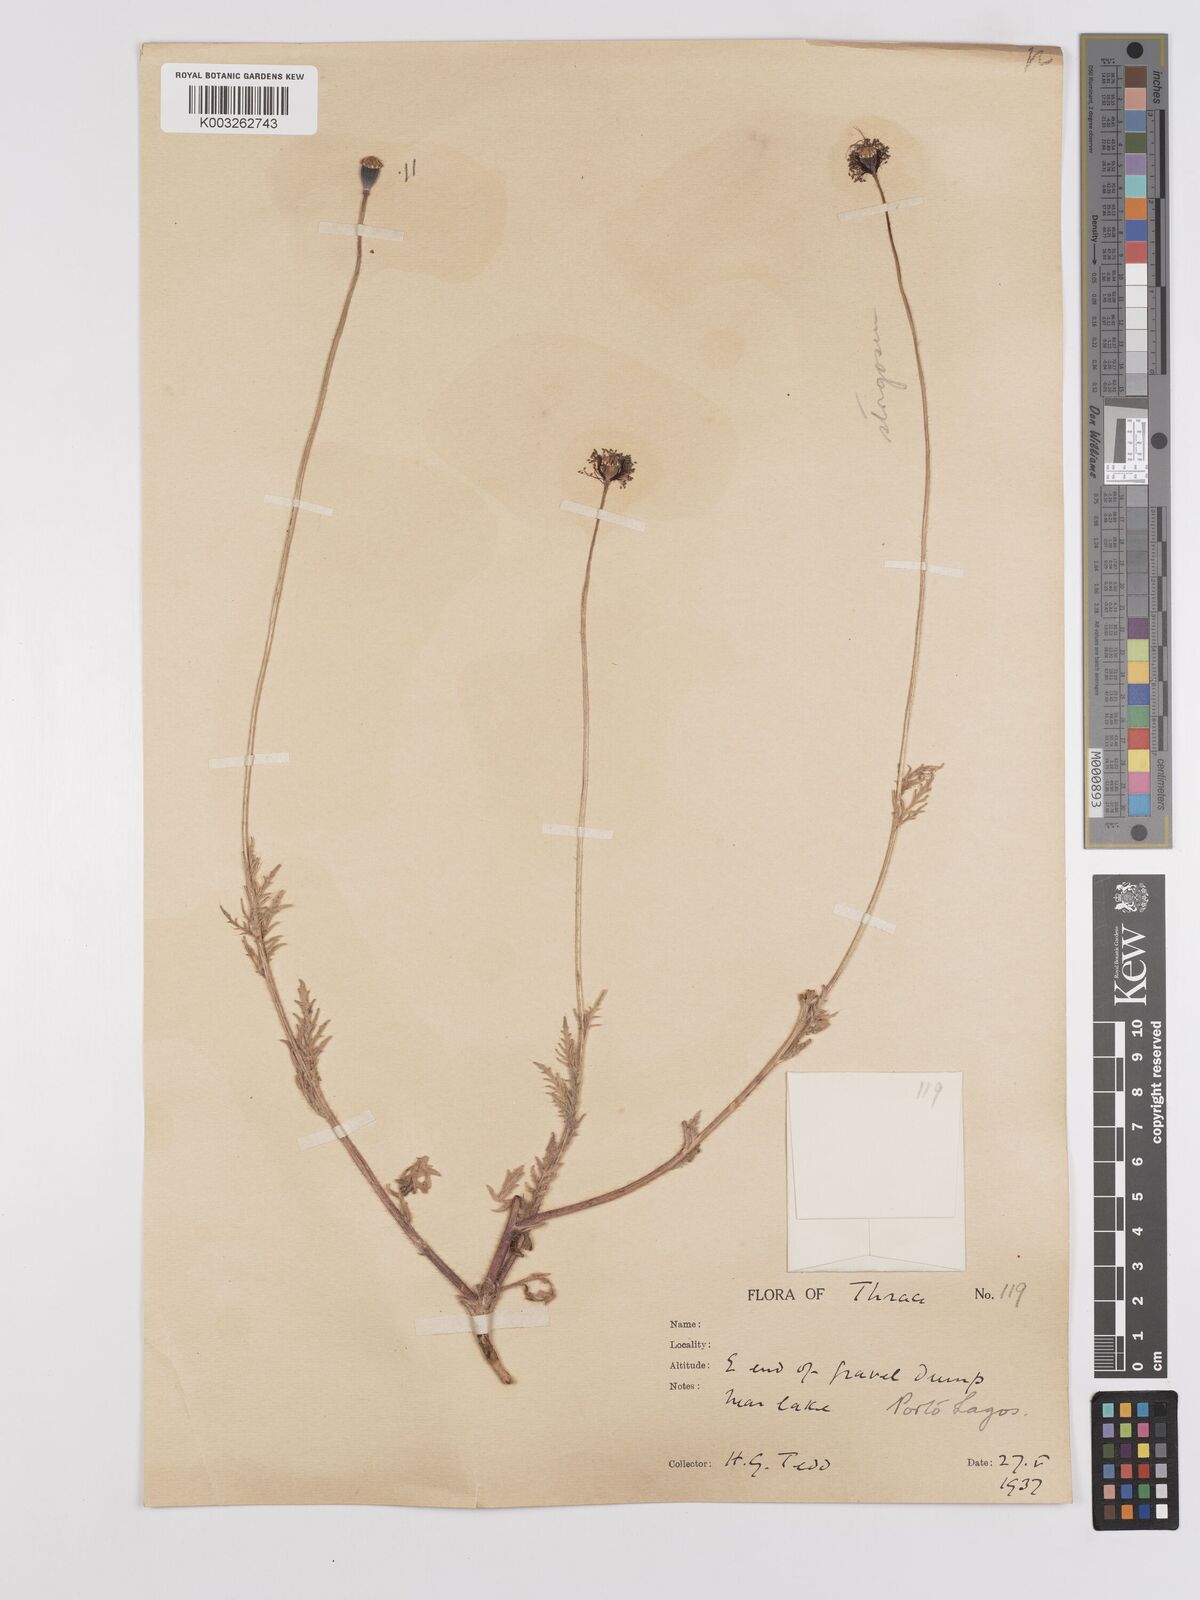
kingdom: Plantae
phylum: Tracheophyta
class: Magnoliopsida
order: Ranunculales
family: Papaveraceae
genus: Papaver
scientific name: Papaver
